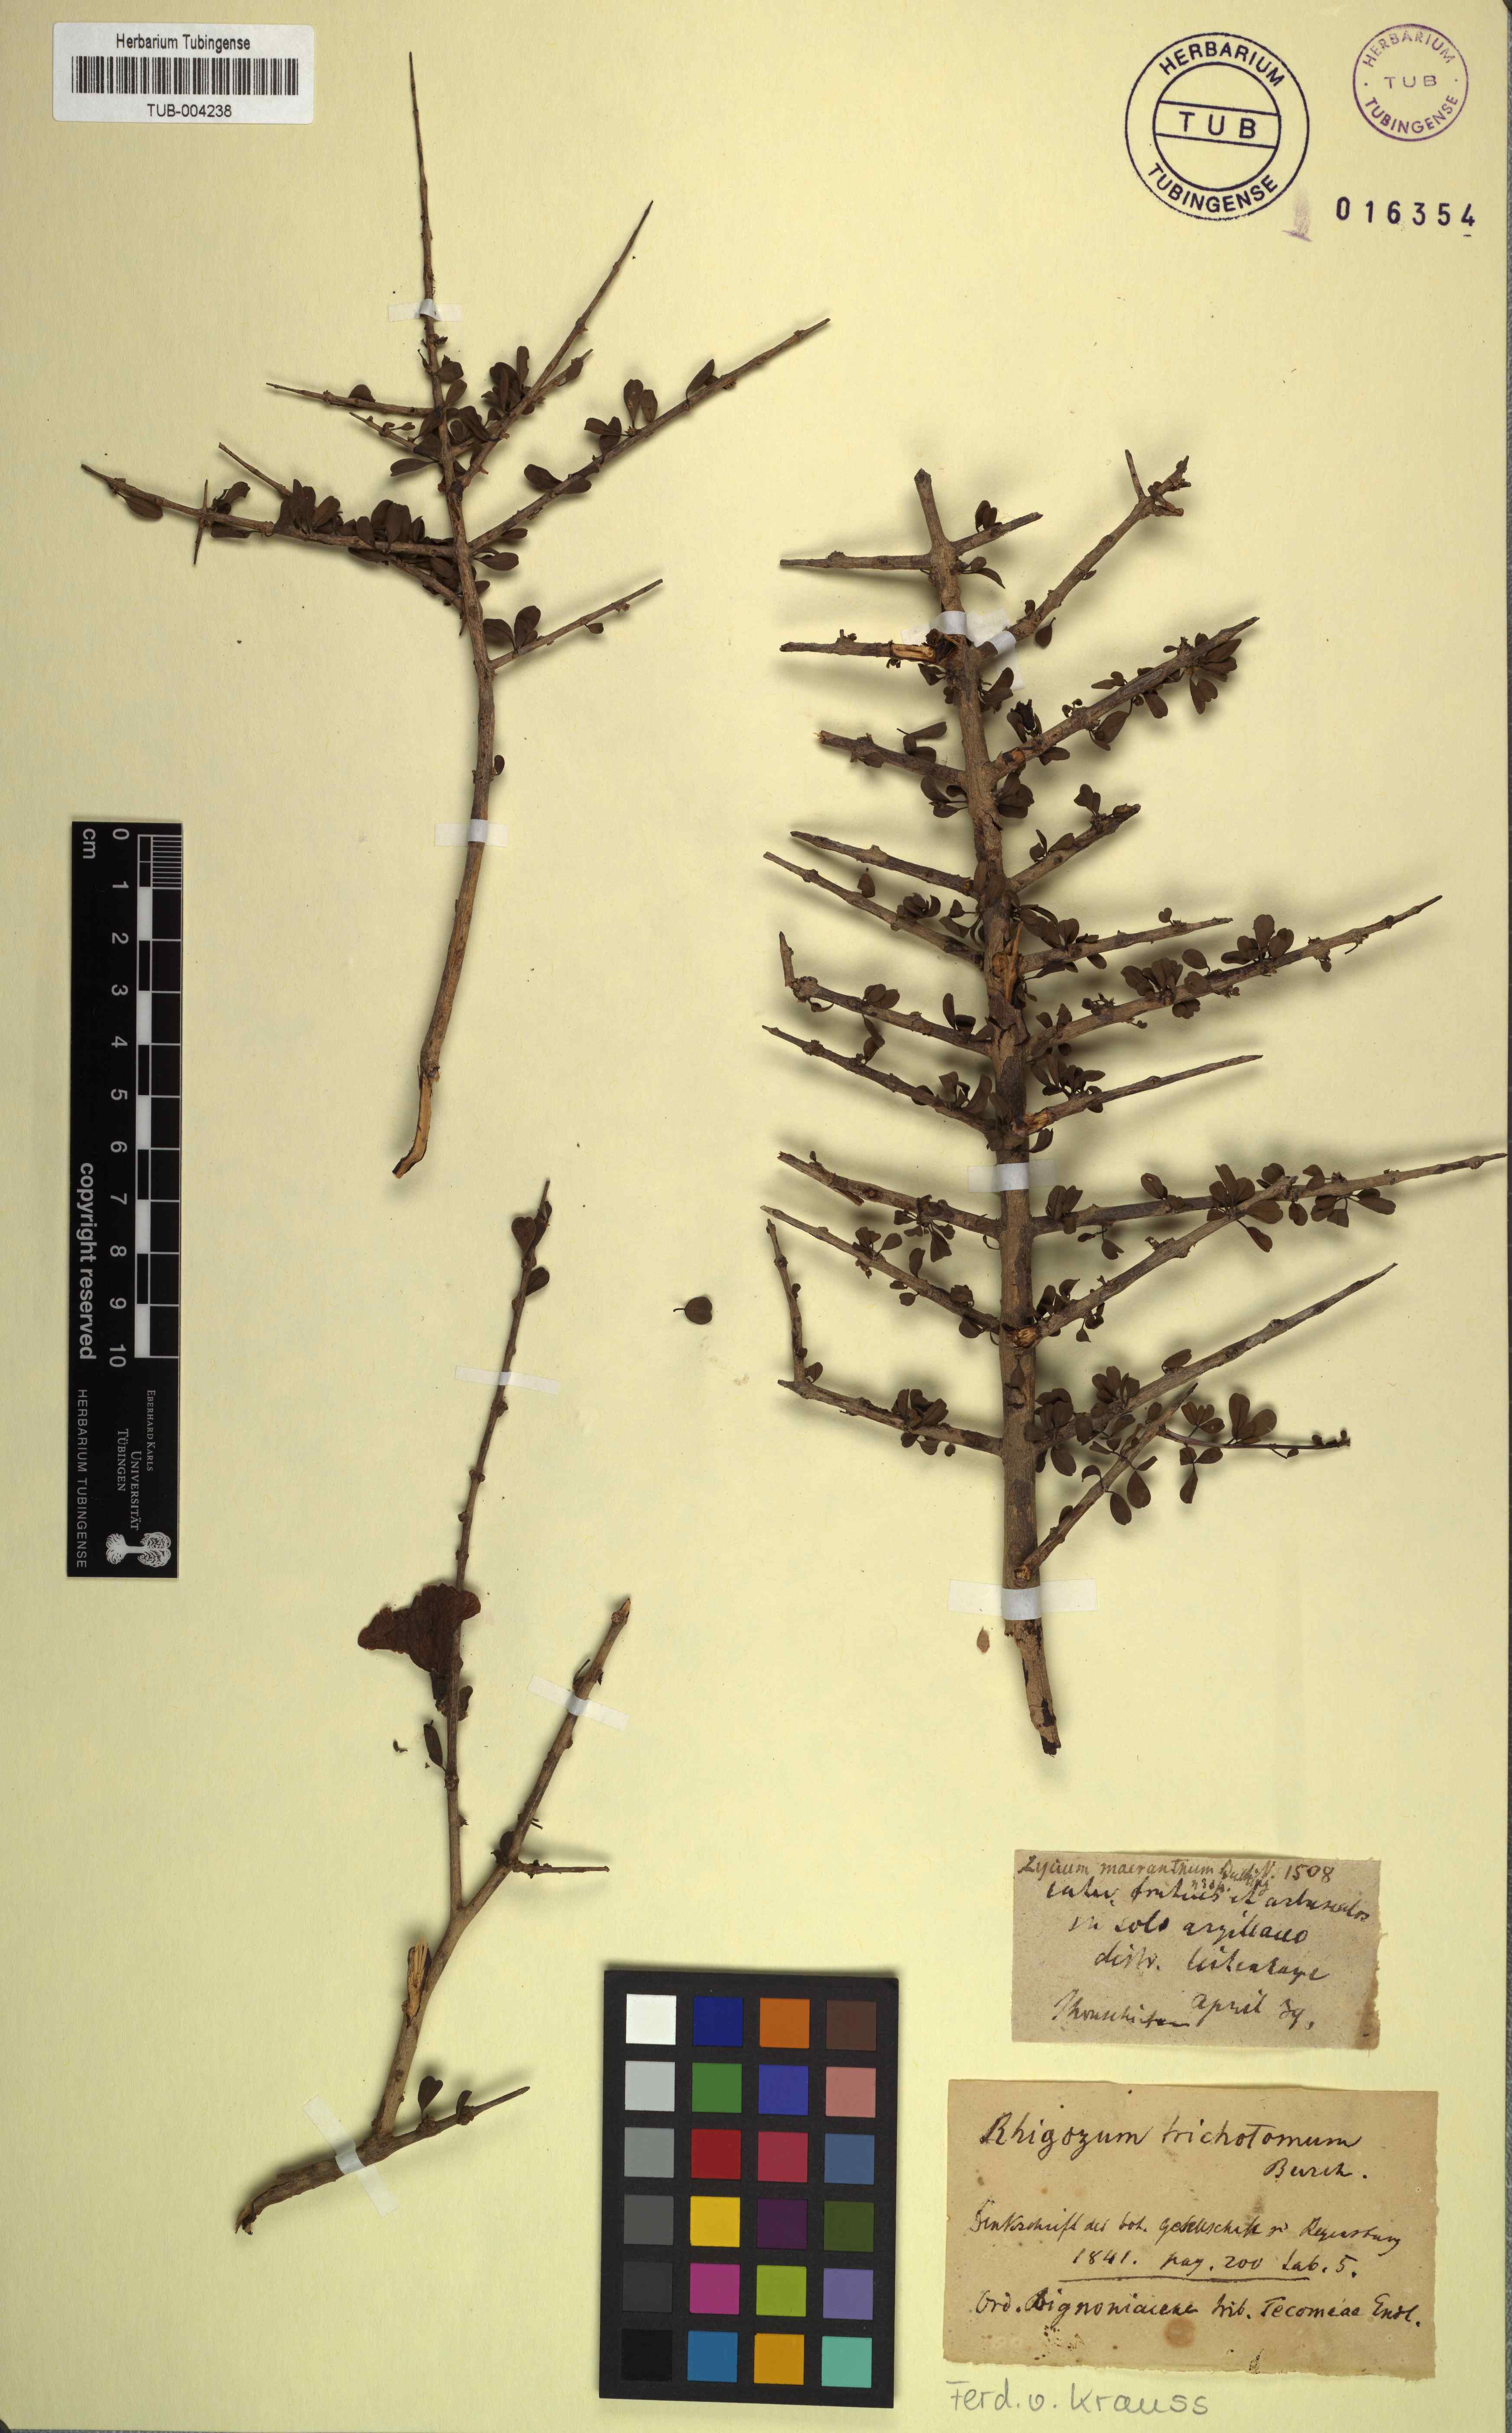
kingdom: Plantae
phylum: Tracheophyta
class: Magnoliopsida
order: Lamiales
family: Bignoniaceae
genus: Rhigozum
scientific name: Rhigozum trichotomum
